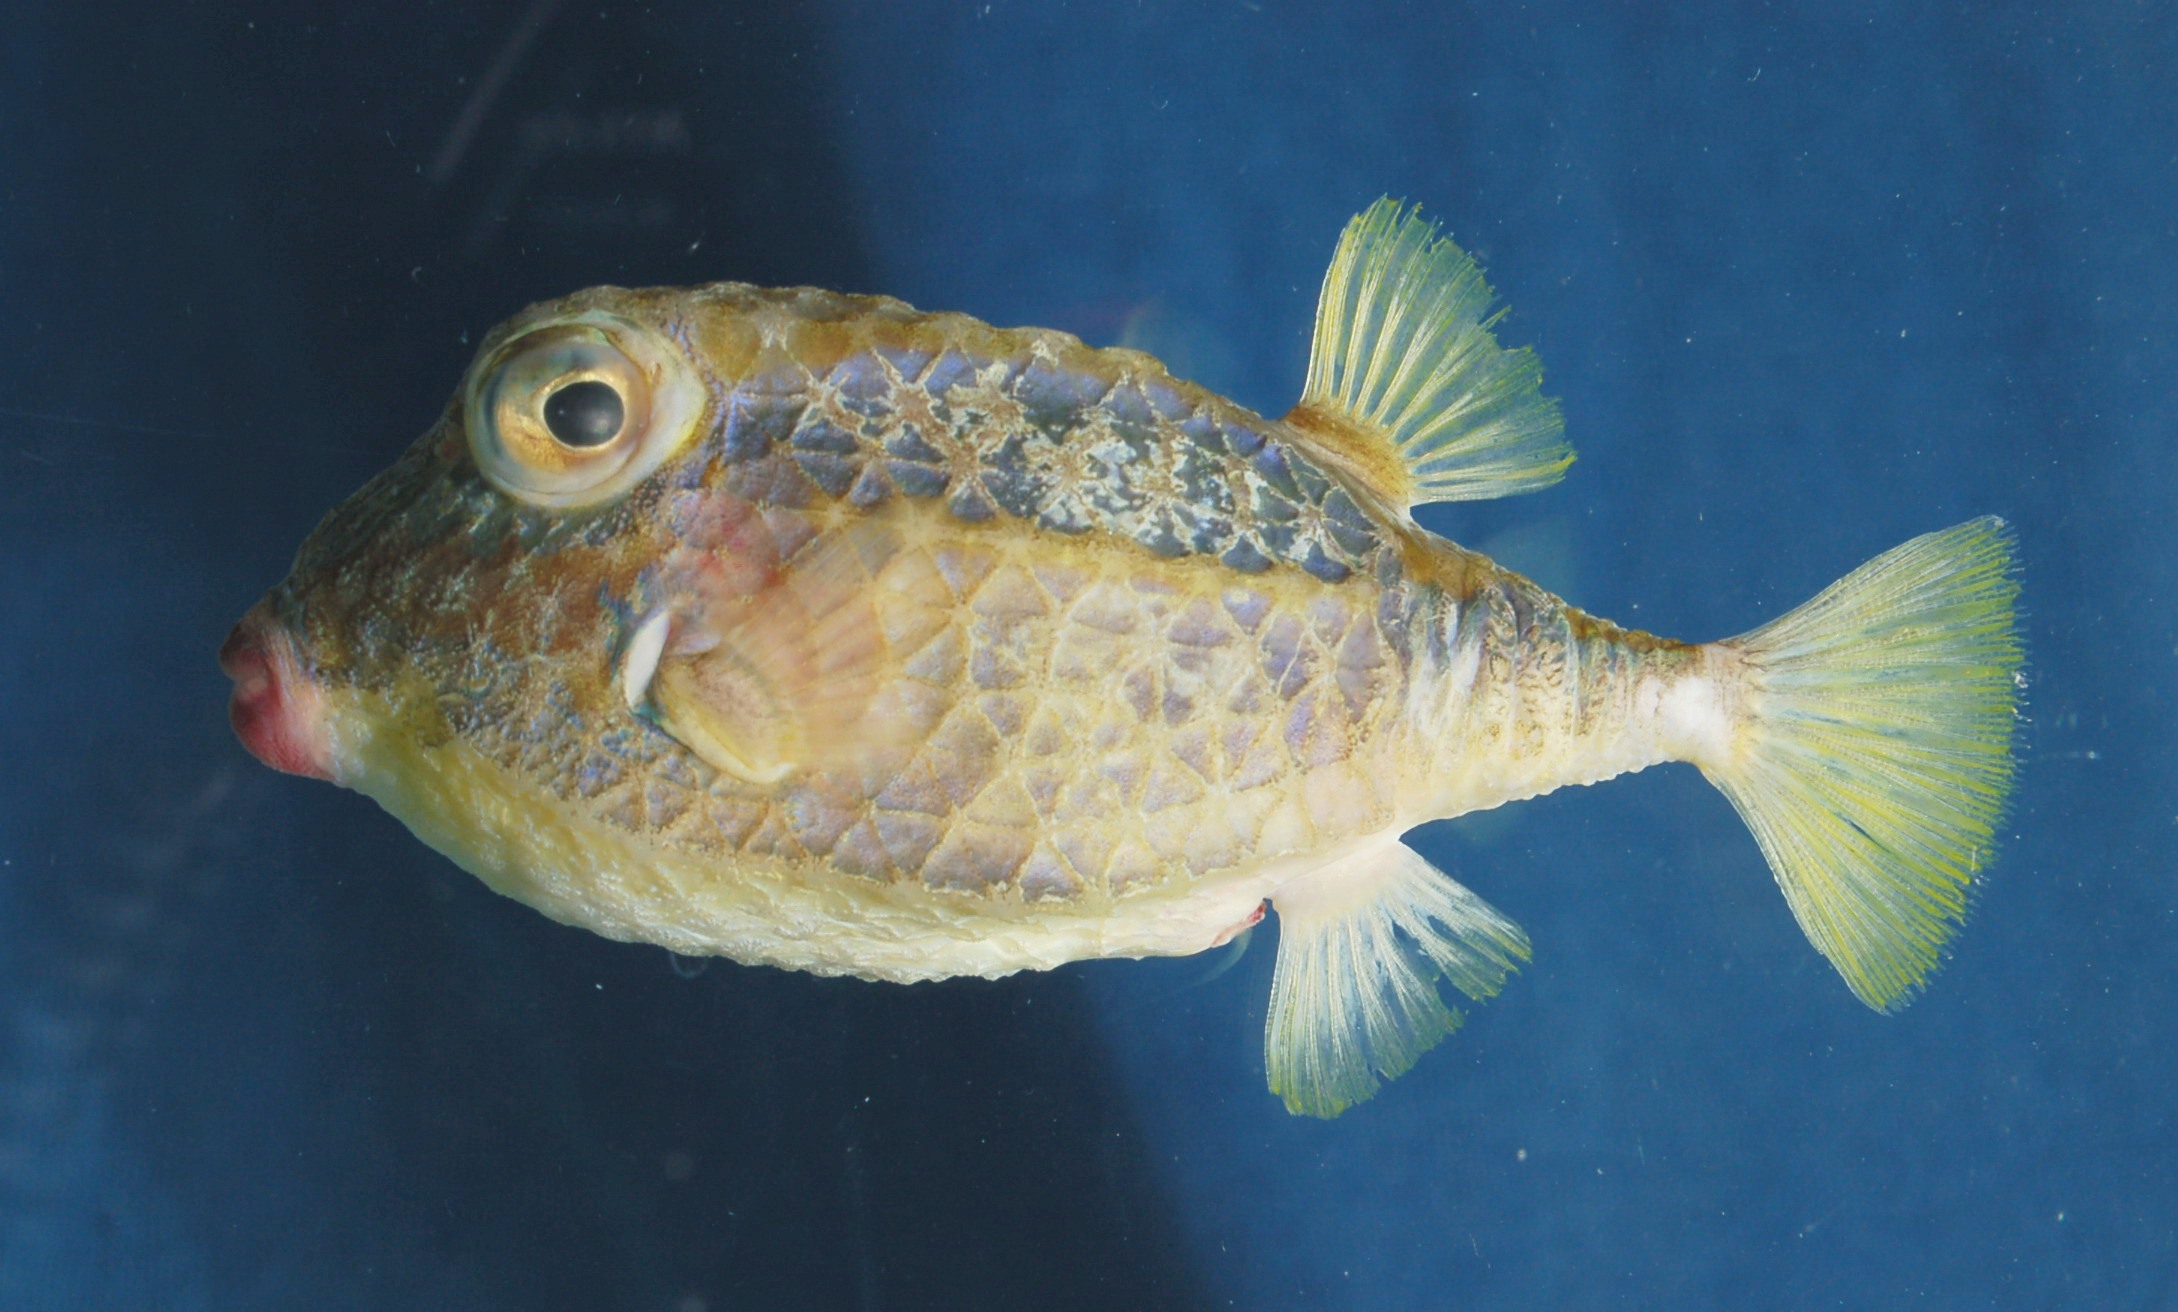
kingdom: Animalia
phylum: Chordata
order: Tetraodontiformes
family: Aracanidae
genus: Kentrocapros
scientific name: Kentrocapros rosapinto
